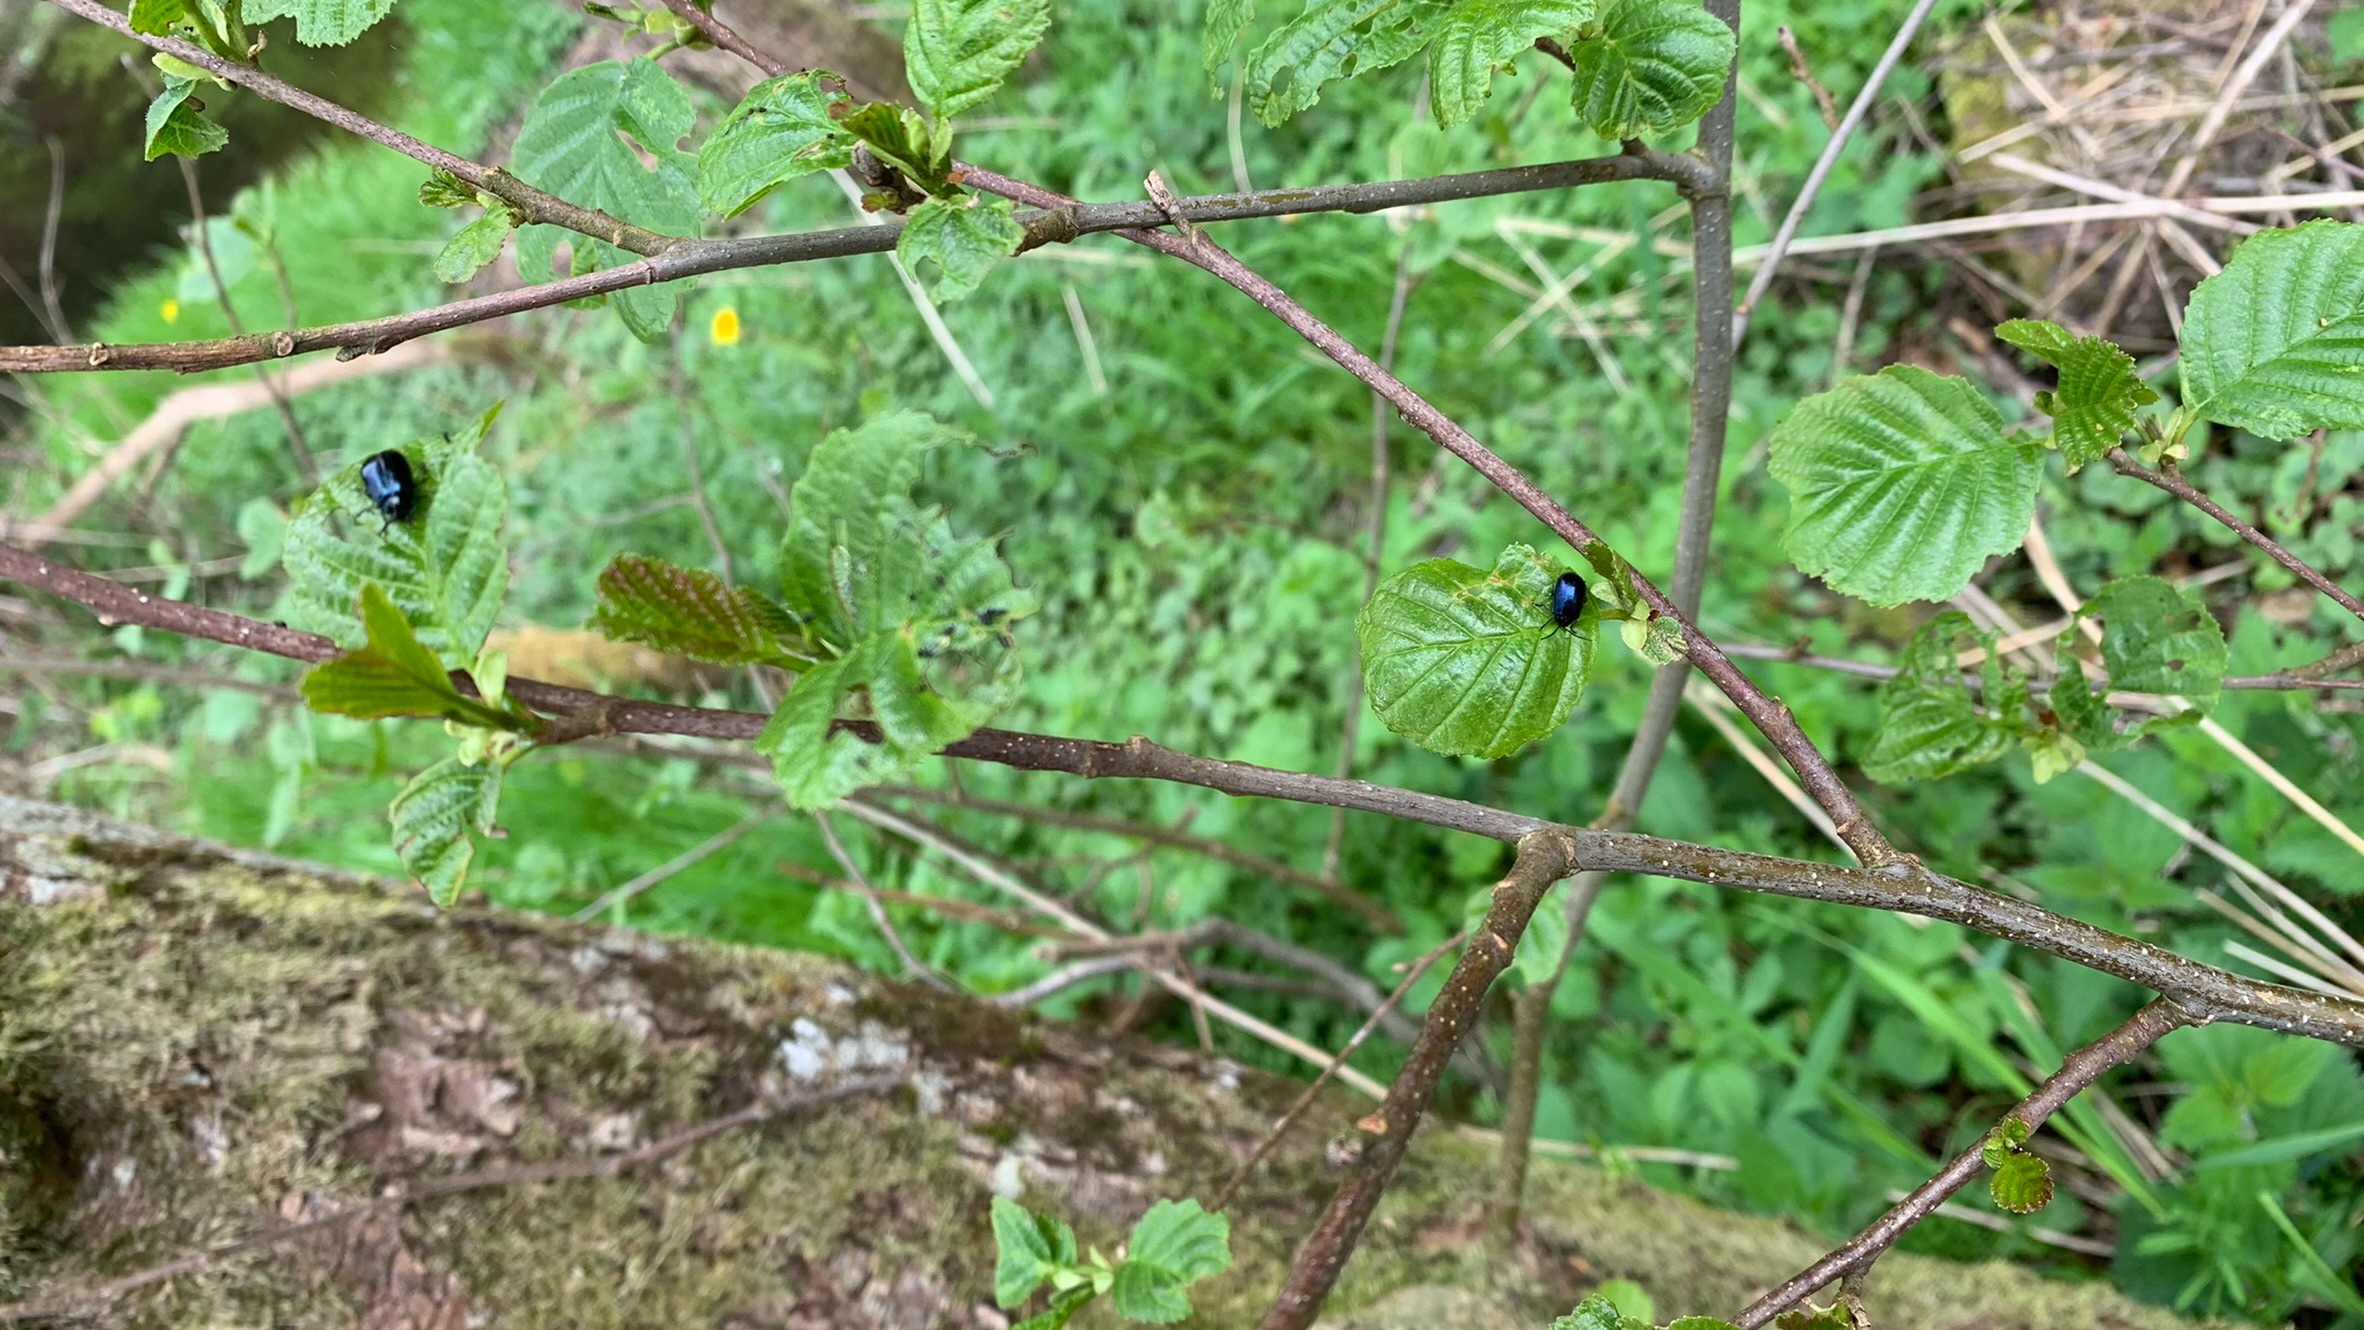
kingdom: Animalia
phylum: Arthropoda
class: Insecta
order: Coleoptera
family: Chrysomelidae
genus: Agelastica
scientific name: Agelastica alni
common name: Ellebladbille
